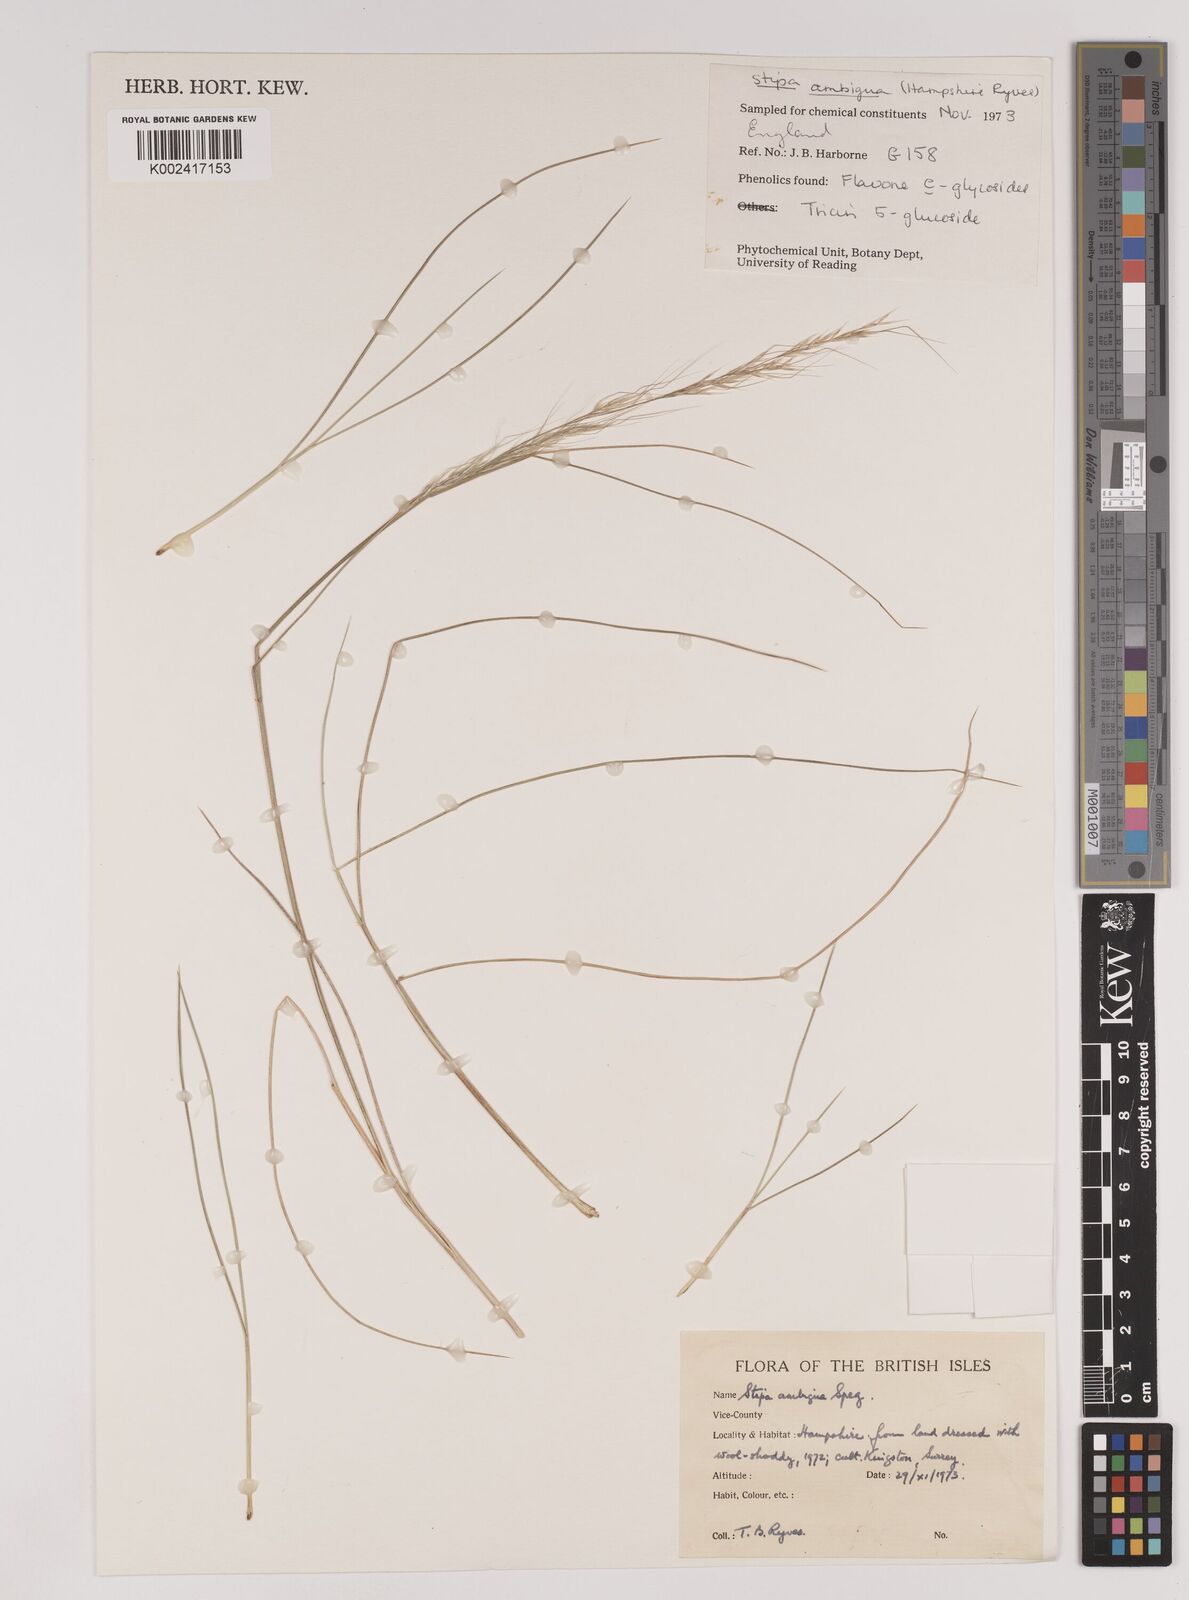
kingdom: Plantae
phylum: Tracheophyta
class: Liliopsida
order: Poales
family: Poaceae
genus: Amelichloa
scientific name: Amelichloa ambigua
